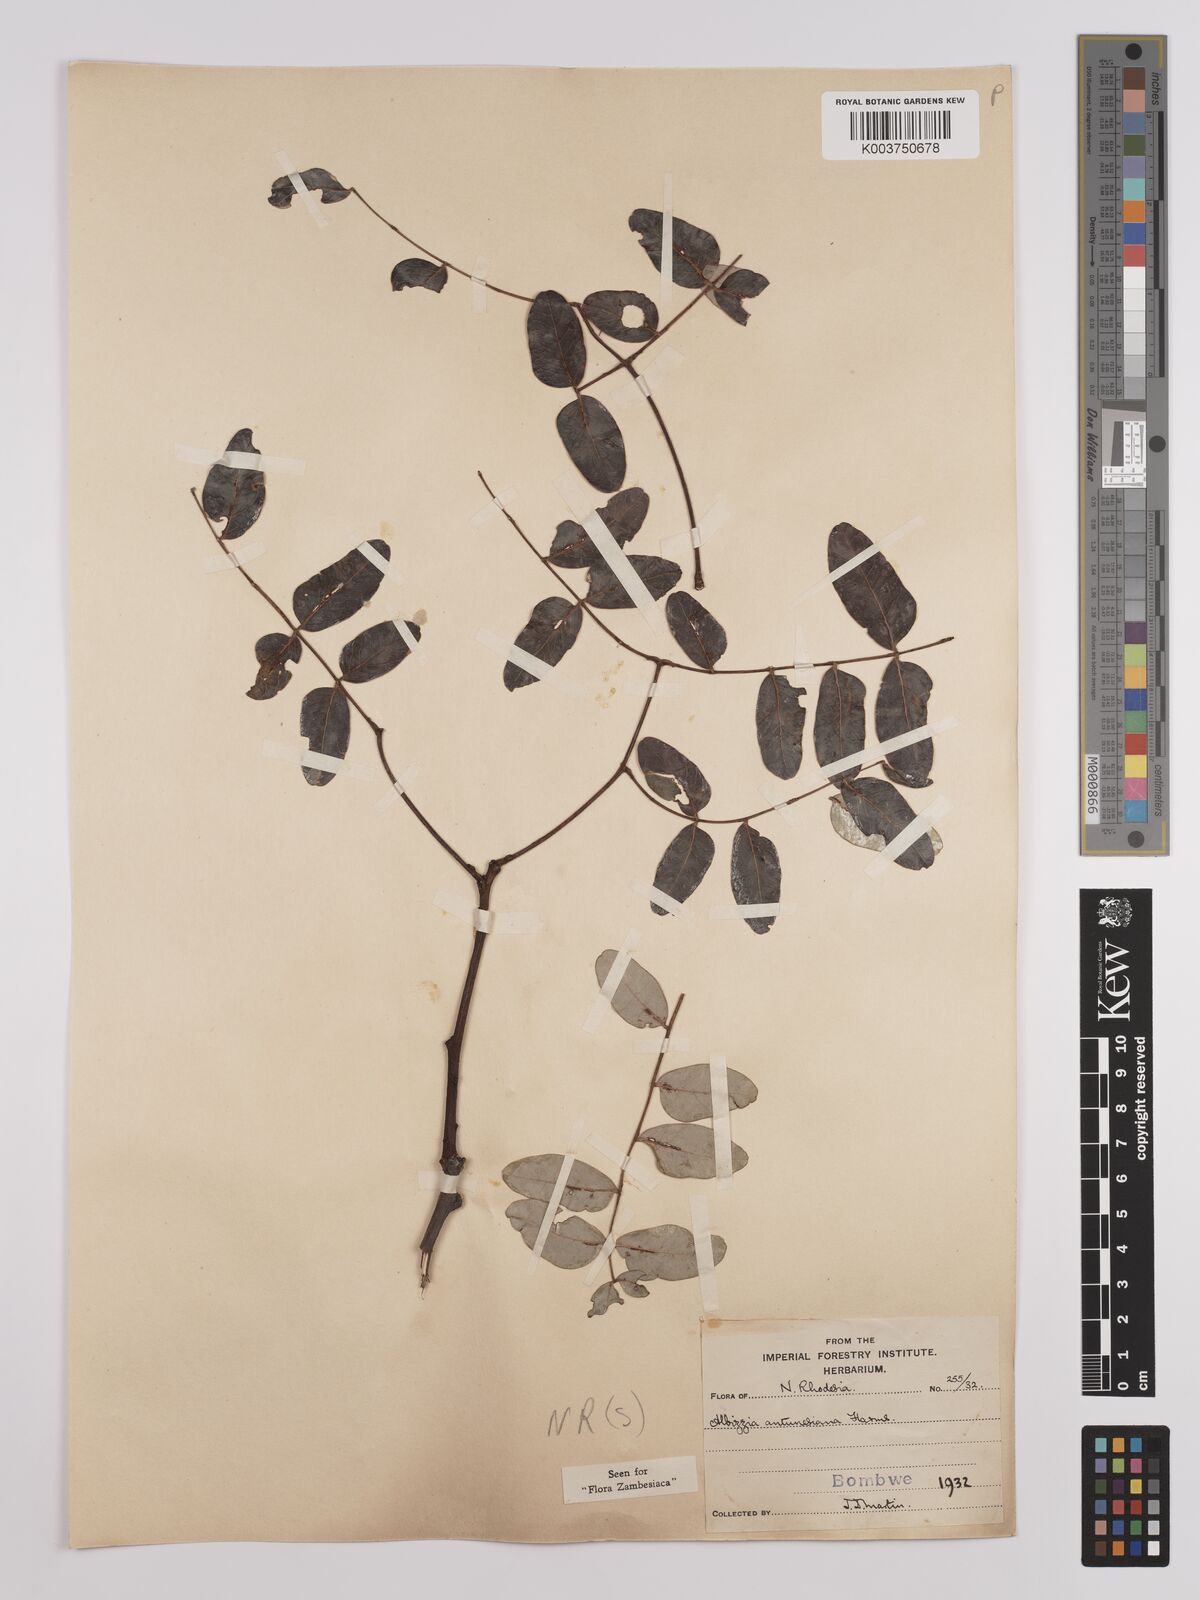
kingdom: Plantae
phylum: Tracheophyta
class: Magnoliopsida
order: Fabales
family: Fabaceae
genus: Albizia
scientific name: Albizia antunesiana
